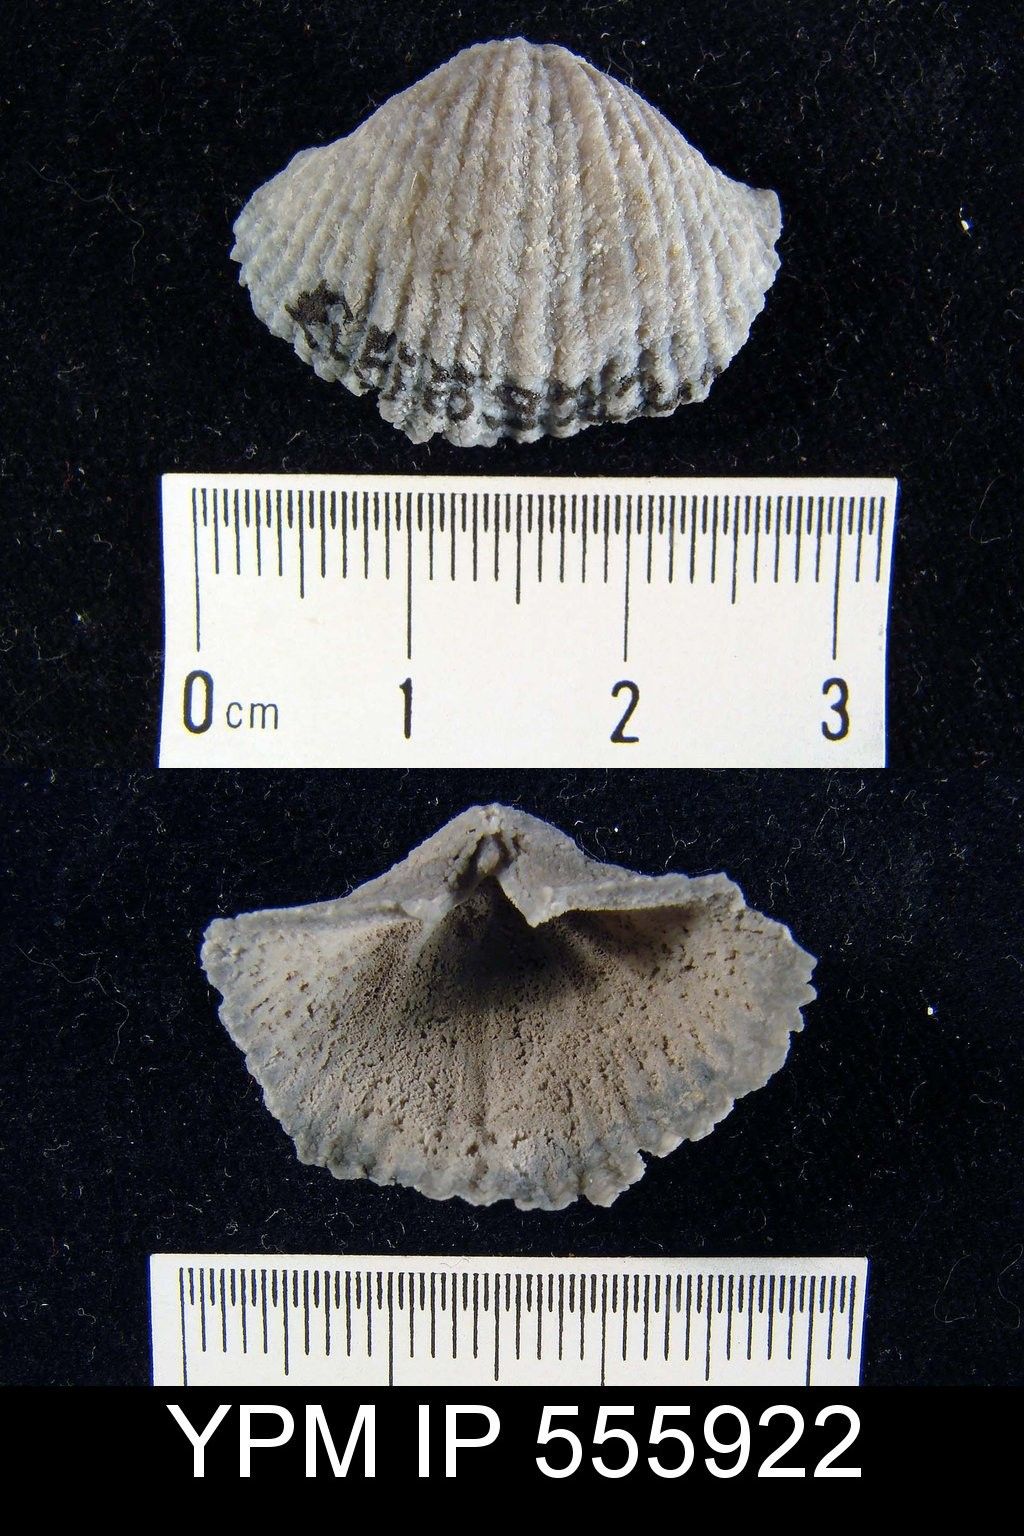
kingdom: Animalia
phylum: Brachiopoda
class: Rhynchonellata
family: Spiriferidae
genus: Spirifer
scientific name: Spirifer
